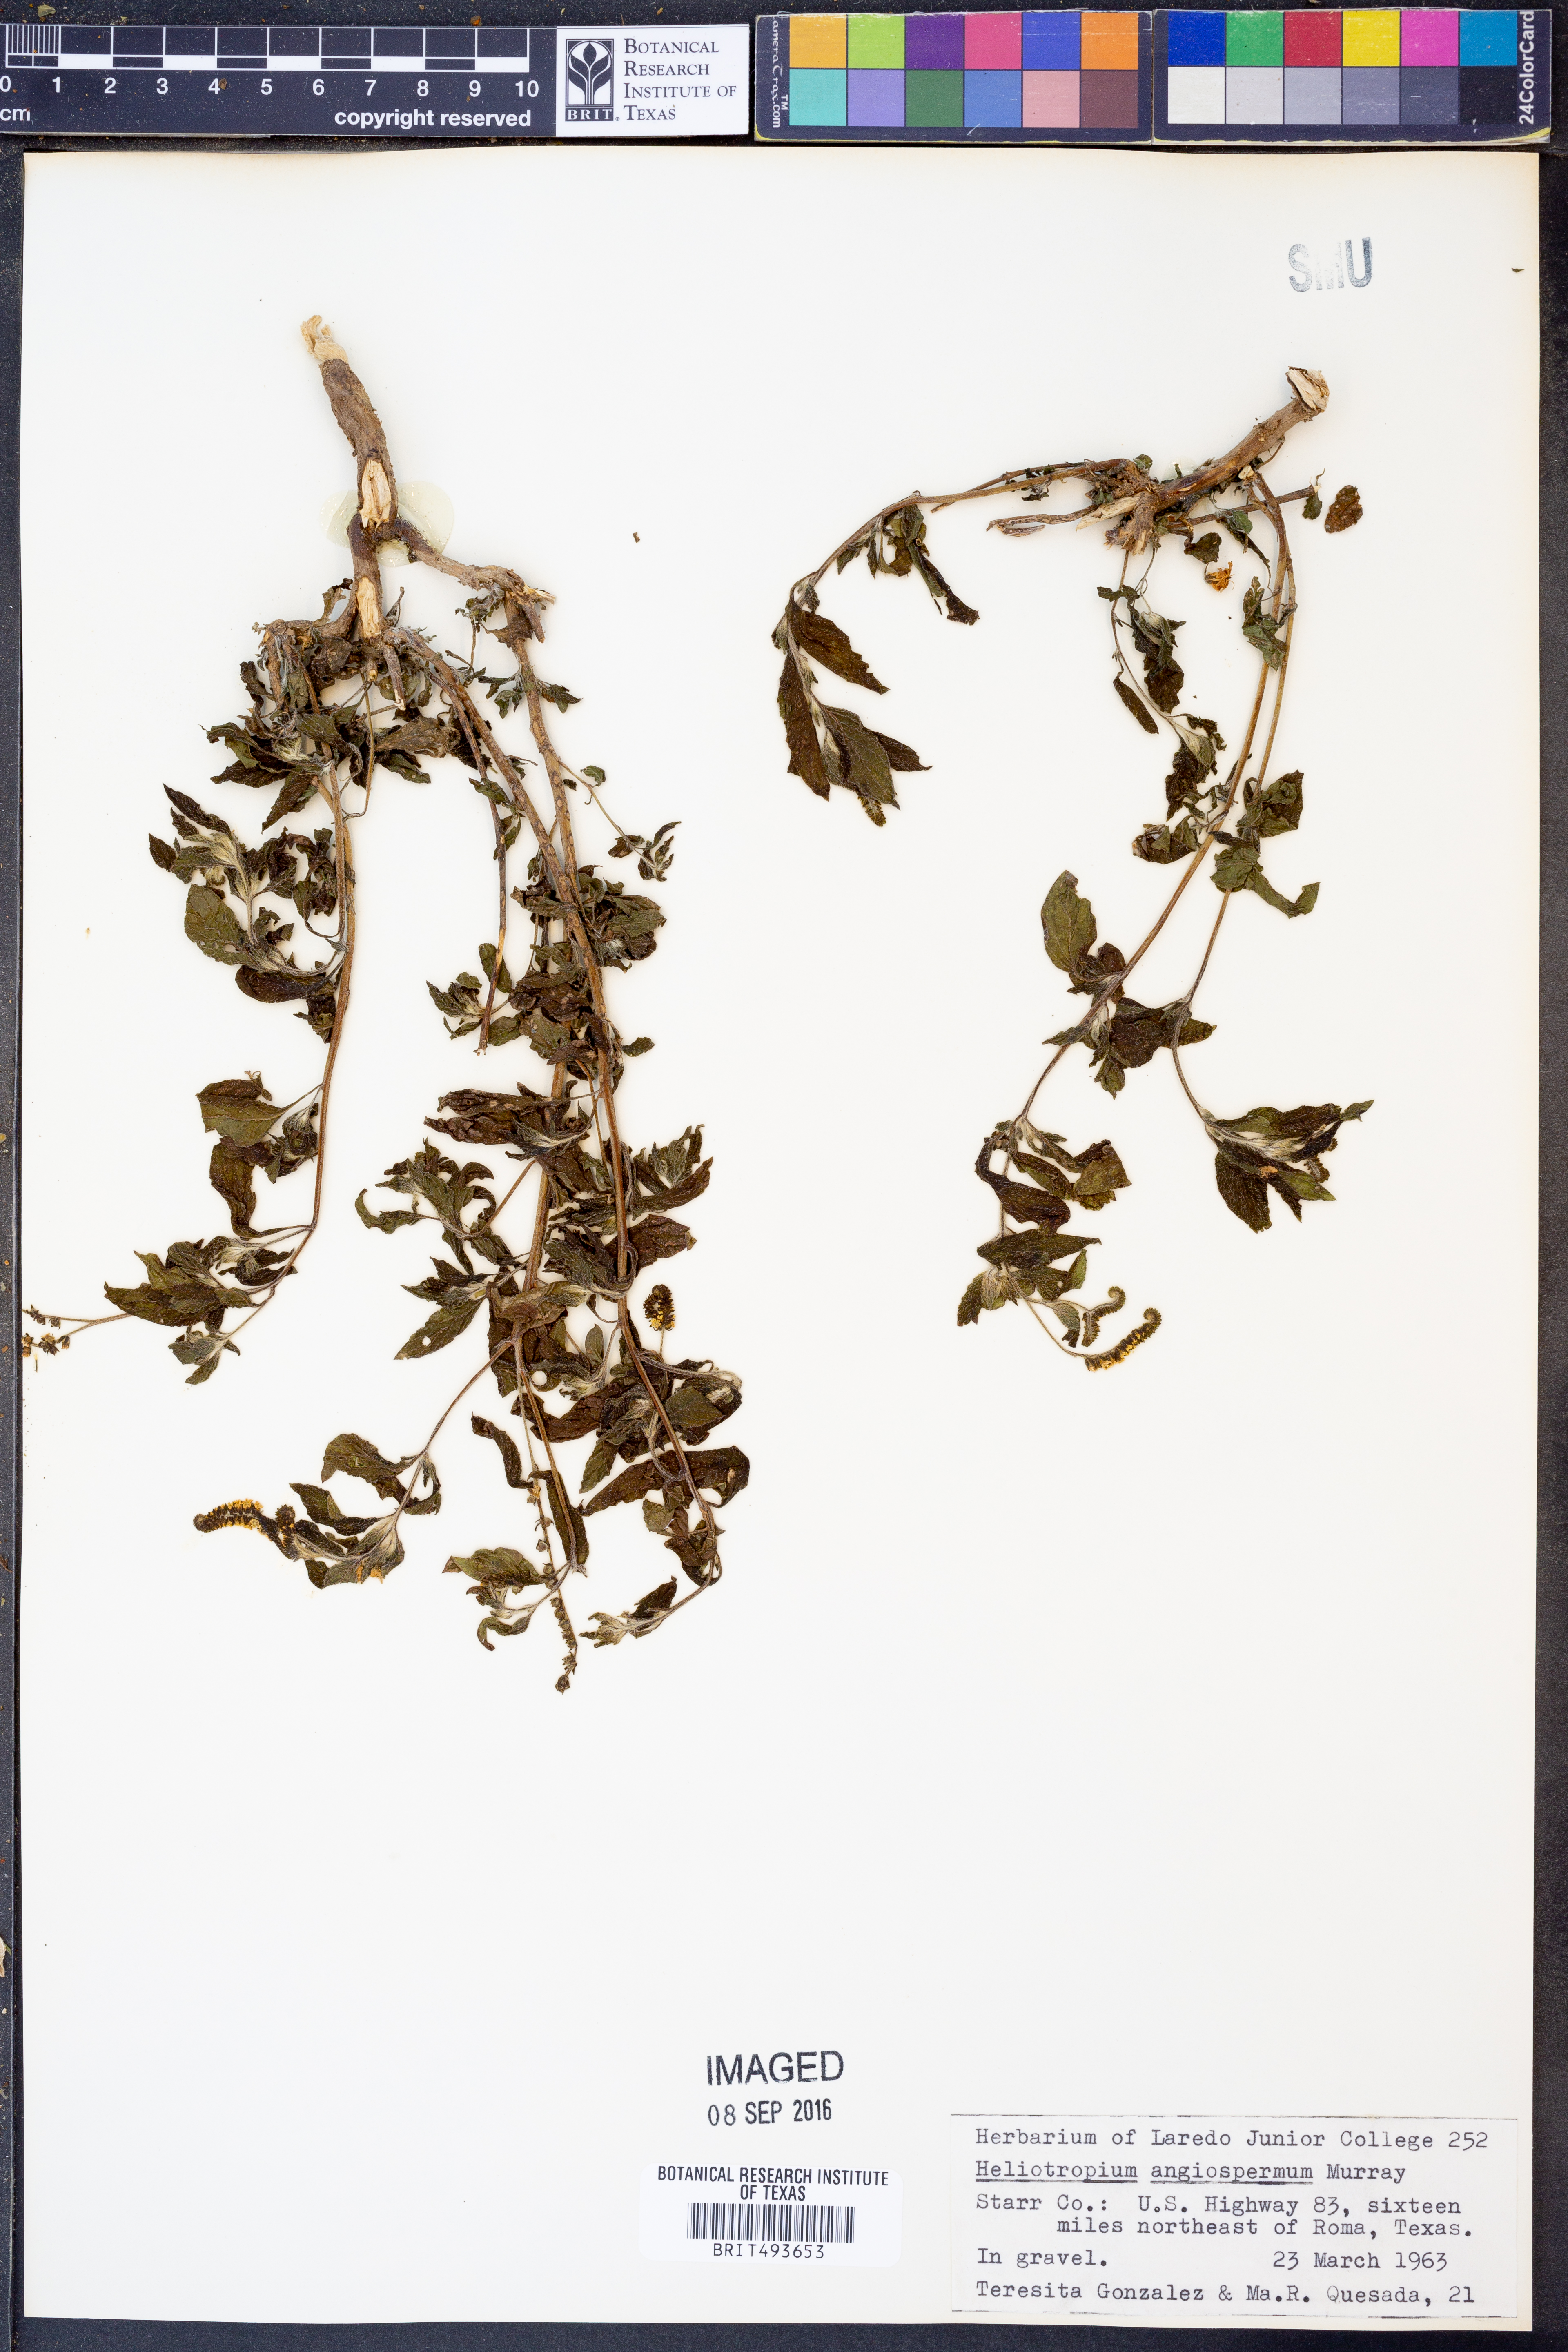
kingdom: Plantae
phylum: Tracheophyta
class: Magnoliopsida
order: Boraginales
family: Heliotropiaceae
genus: Heliotropium
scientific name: Heliotropium angiospermum
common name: Eye bright
